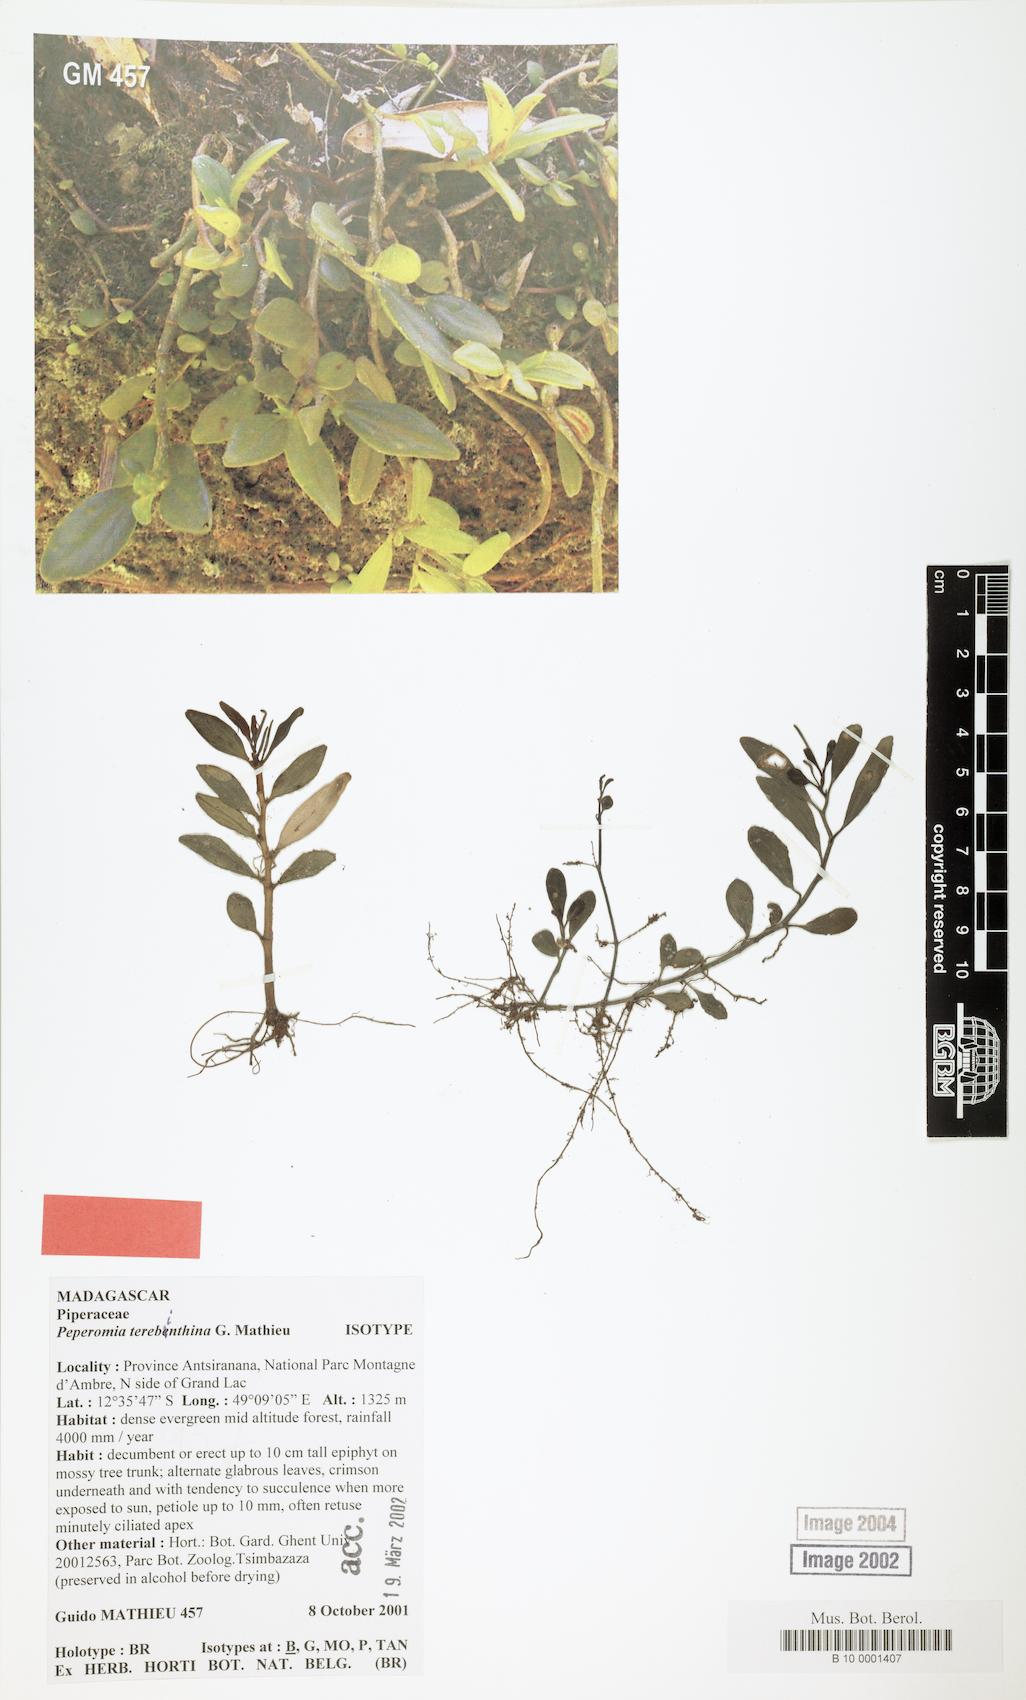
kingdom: Plantae
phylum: Tracheophyta
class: Magnoliopsida
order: Piperales
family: Piperaceae
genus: Peperomia
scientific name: Peperomia terebinthina
